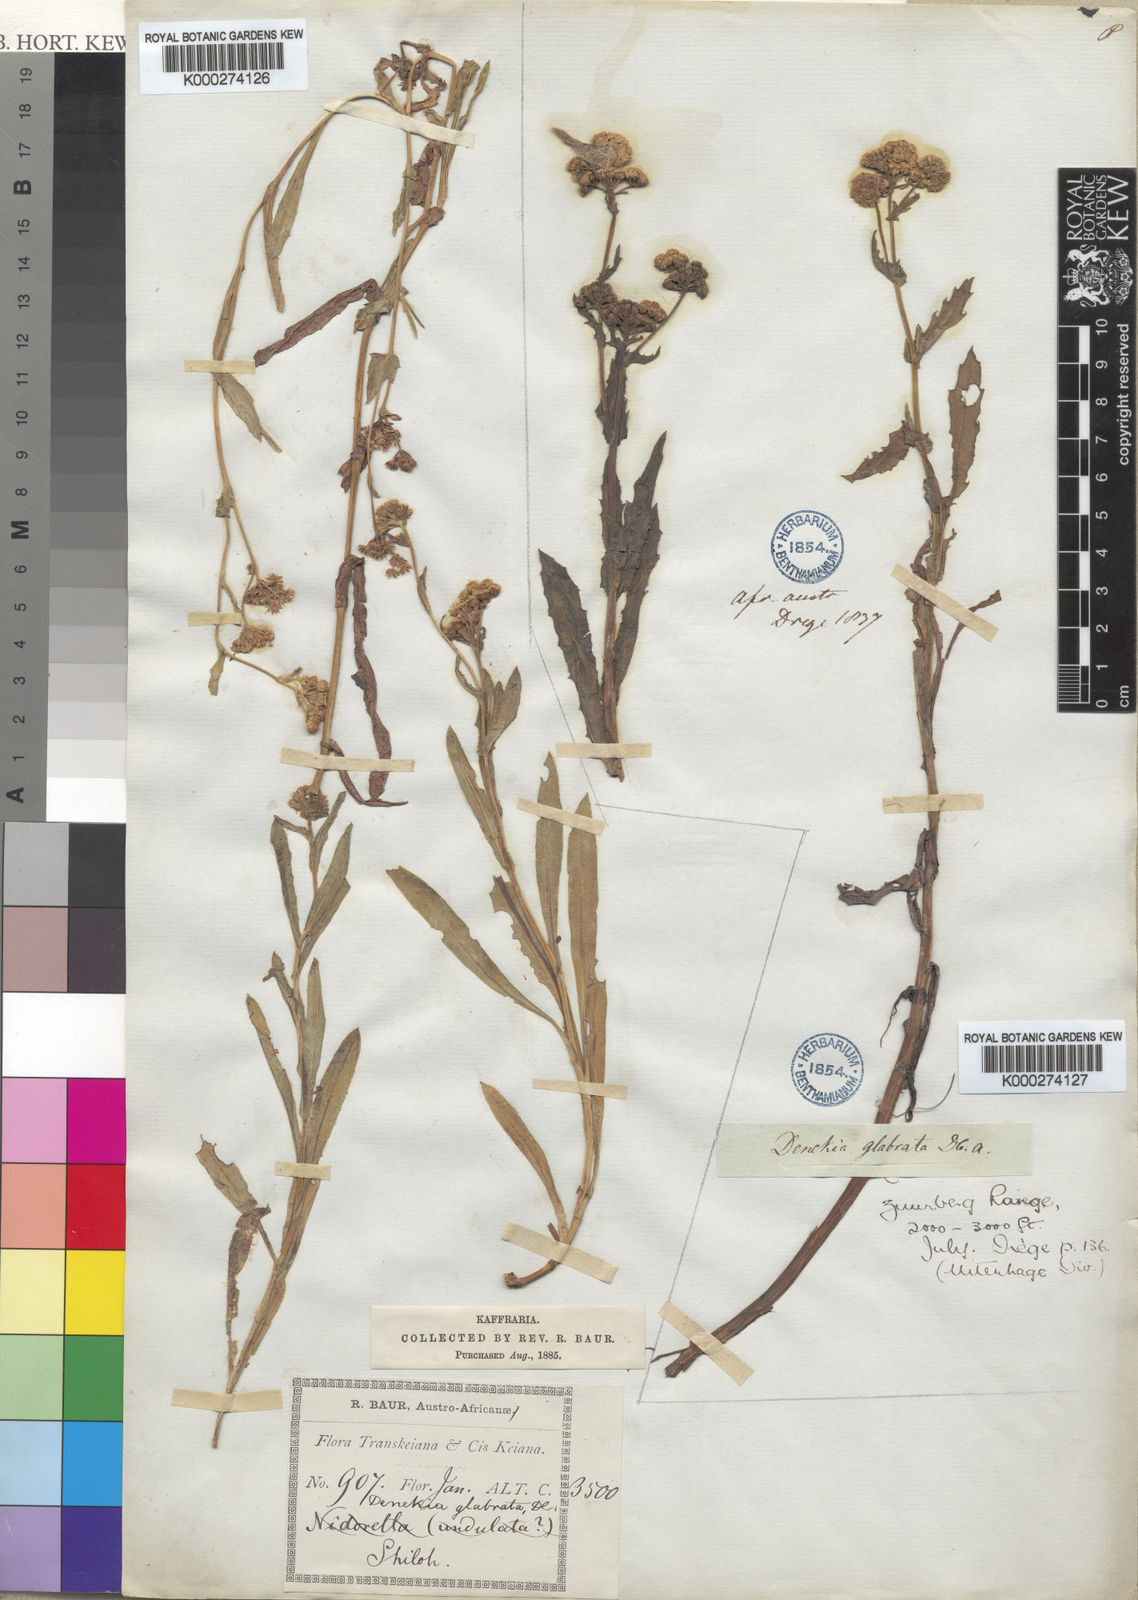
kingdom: Plantae
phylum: Tracheophyta
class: Magnoliopsida
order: Asterales
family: Asteraceae
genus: Denekia
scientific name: Denekia capensis
